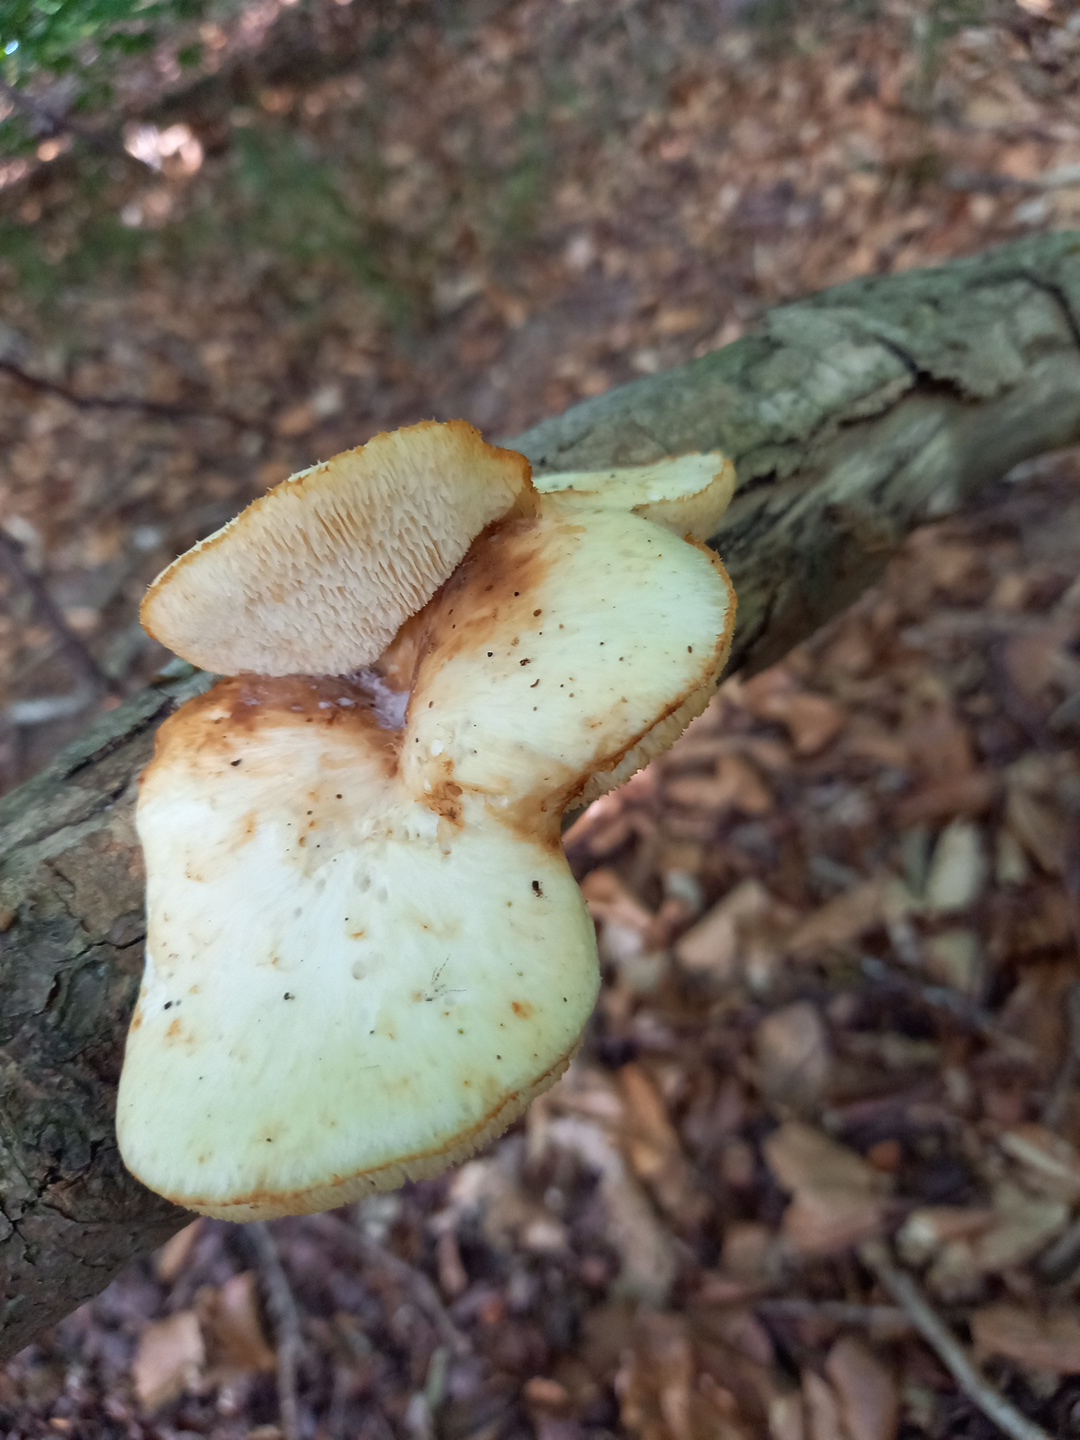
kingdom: Fungi
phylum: Basidiomycota
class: Agaricomycetes
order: Polyporales
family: Polyporaceae
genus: Polyporus
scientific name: Polyporus tuberaster
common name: knoldet stilkporesvamp
